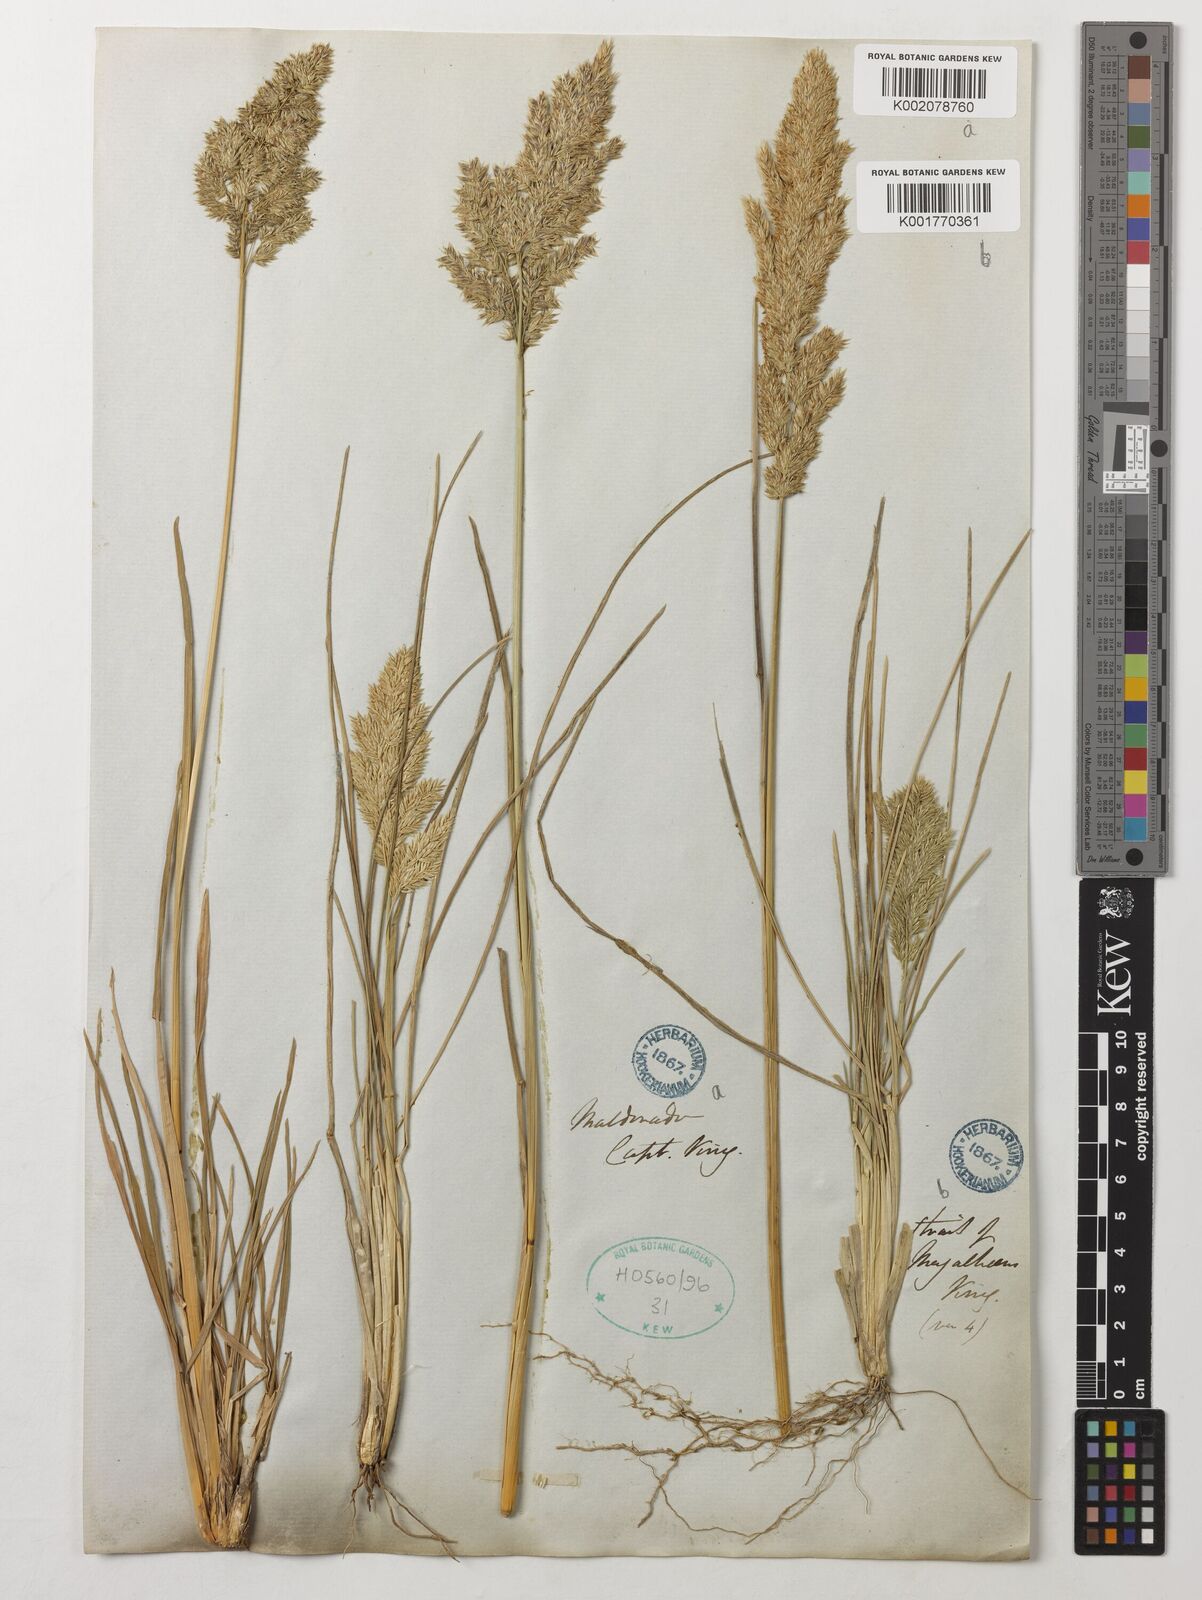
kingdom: Plantae
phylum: Tracheophyta
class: Liliopsida
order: Poales
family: Poaceae
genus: Poa
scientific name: Poa
